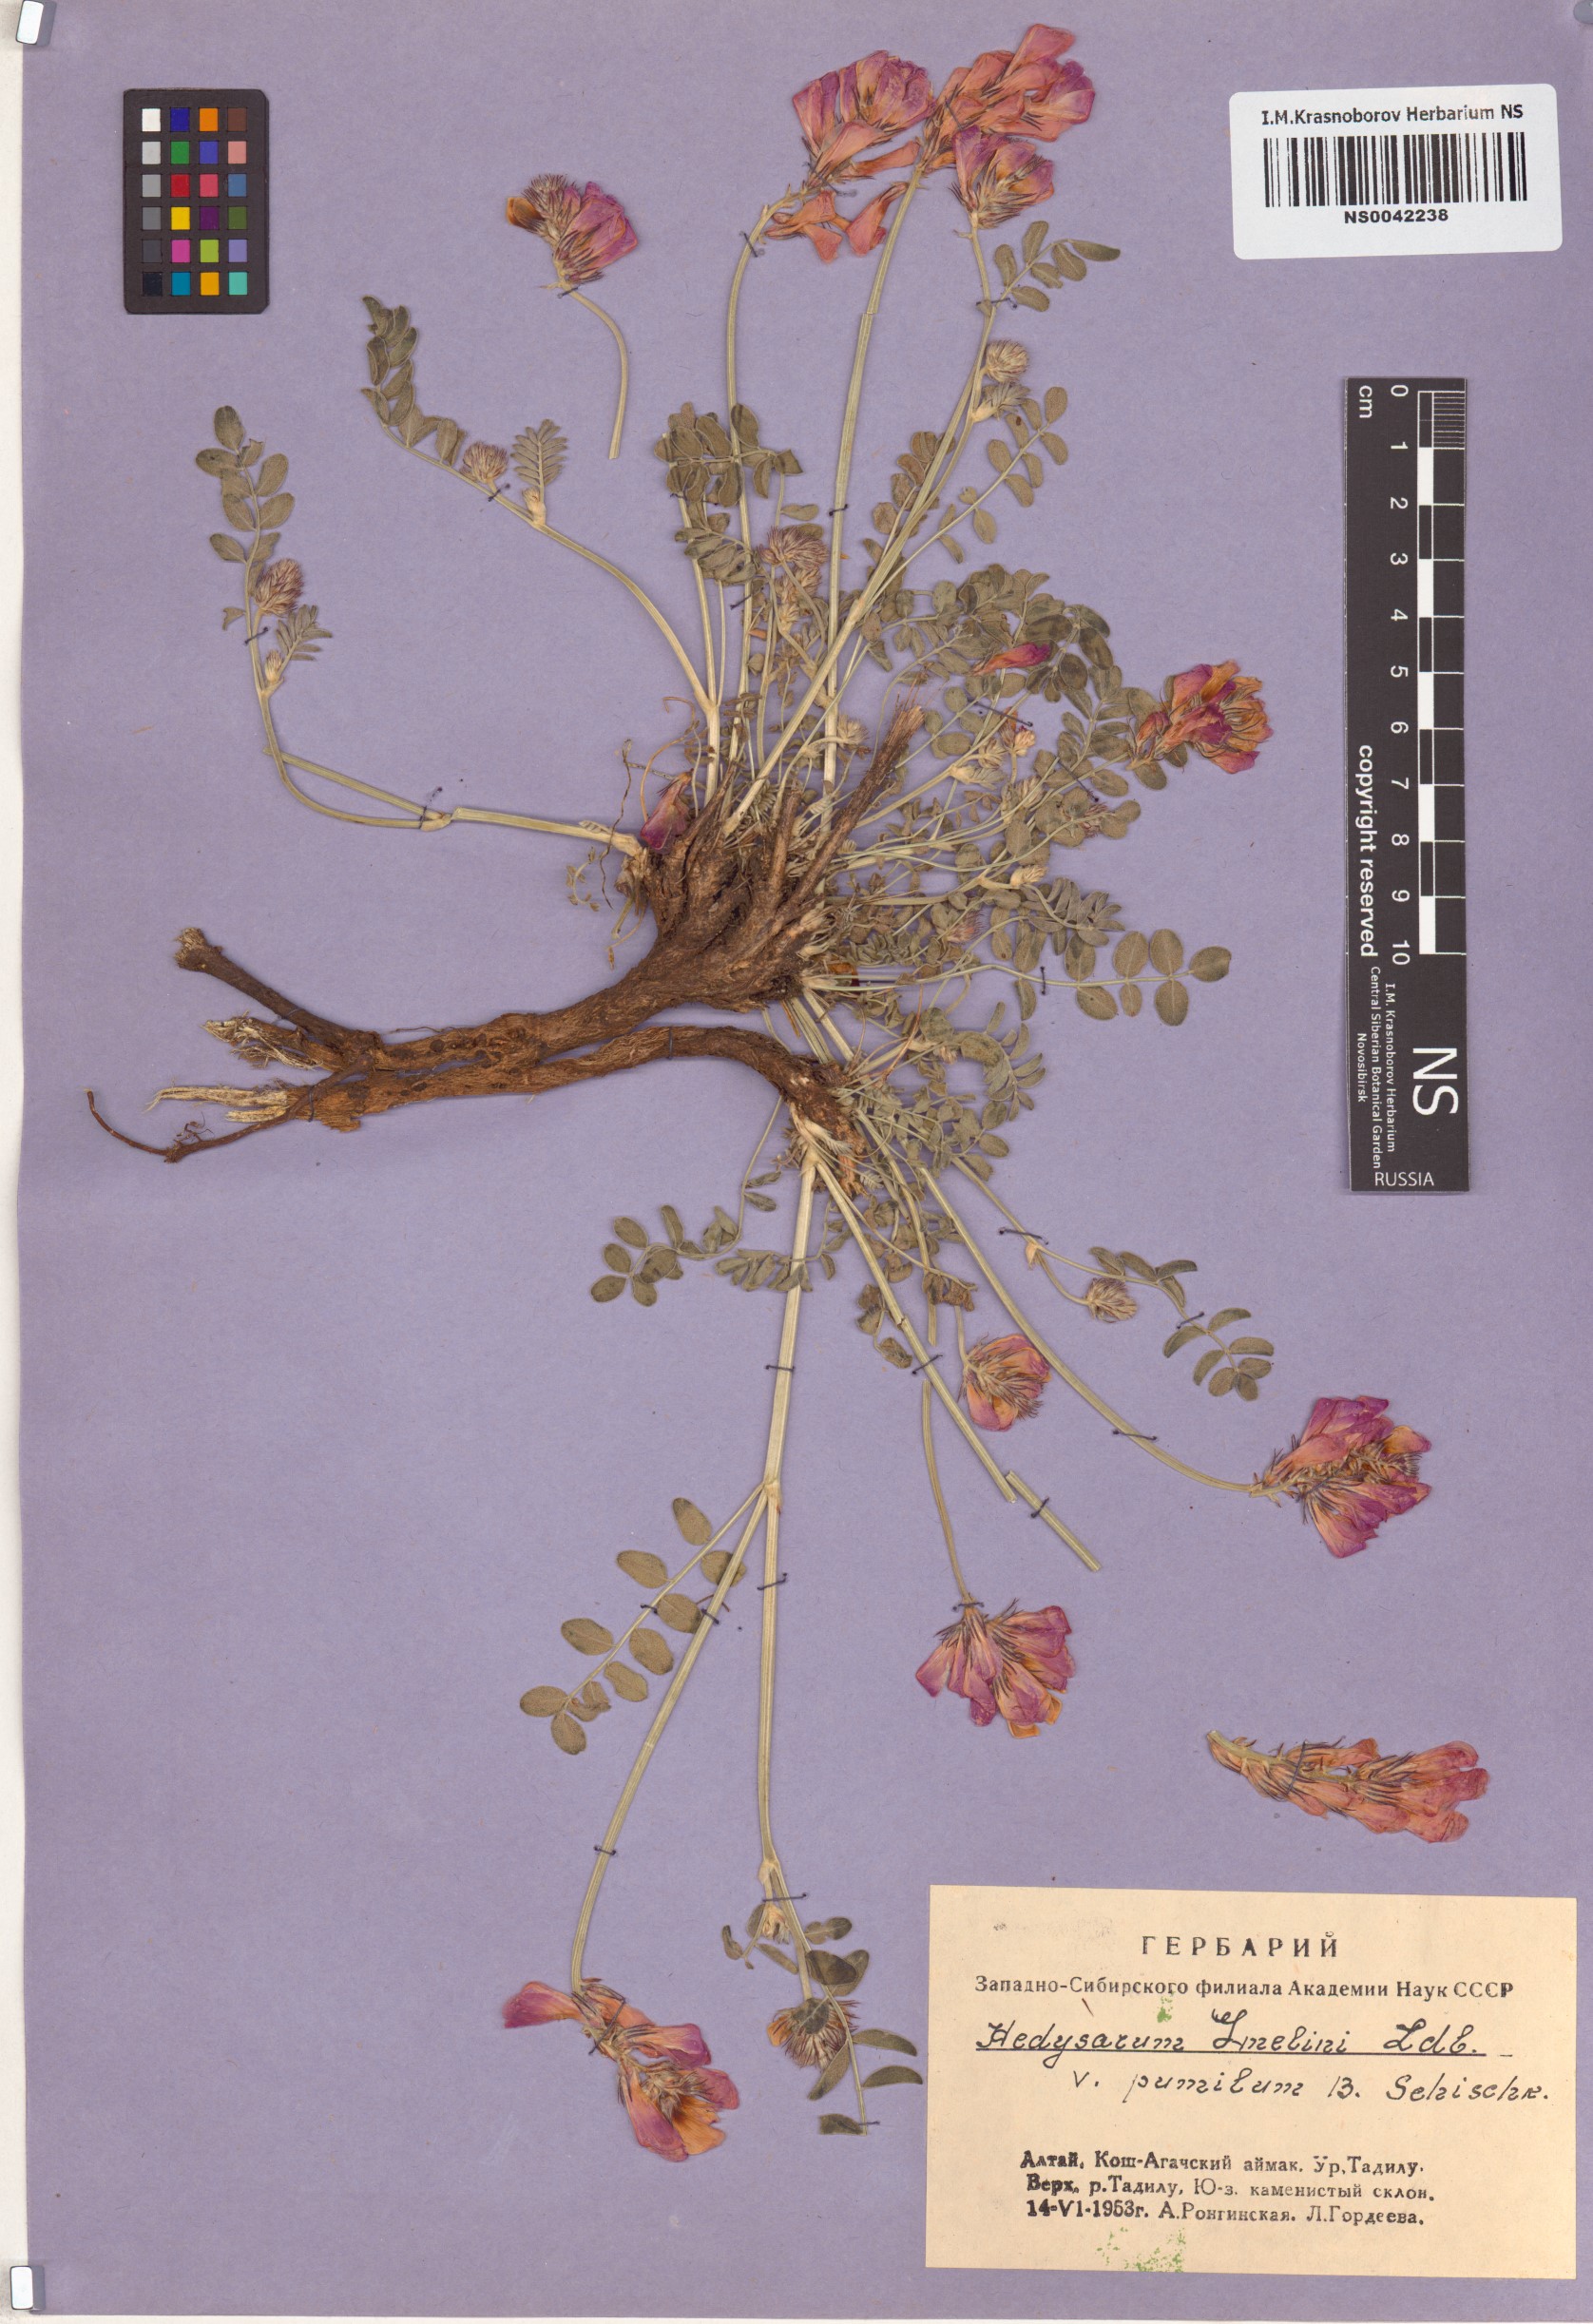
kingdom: Plantae
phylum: Tracheophyta
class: Magnoliopsida
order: Fabales
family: Fabaceae
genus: Hedysarum
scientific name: Hedysarum gmelinii
